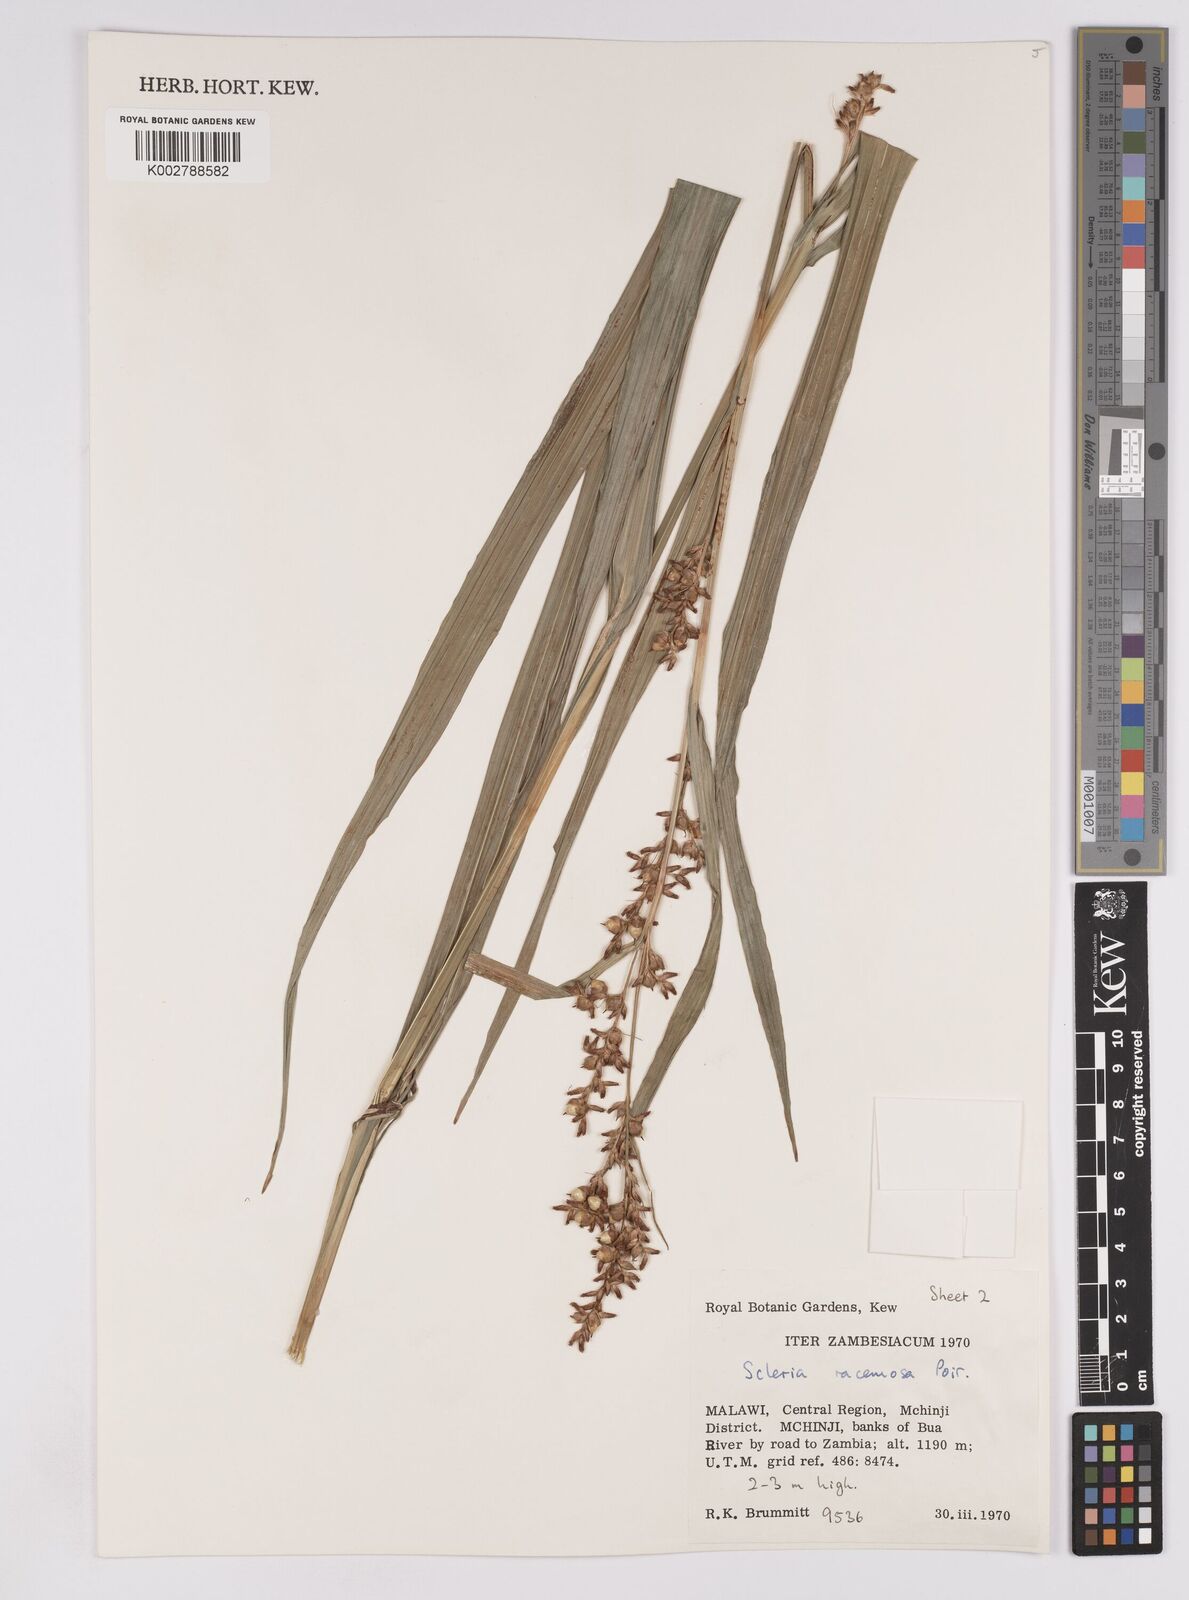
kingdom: Plantae
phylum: Tracheophyta
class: Liliopsida
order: Poales
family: Cyperaceae
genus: Scleria
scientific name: Scleria racemosa
